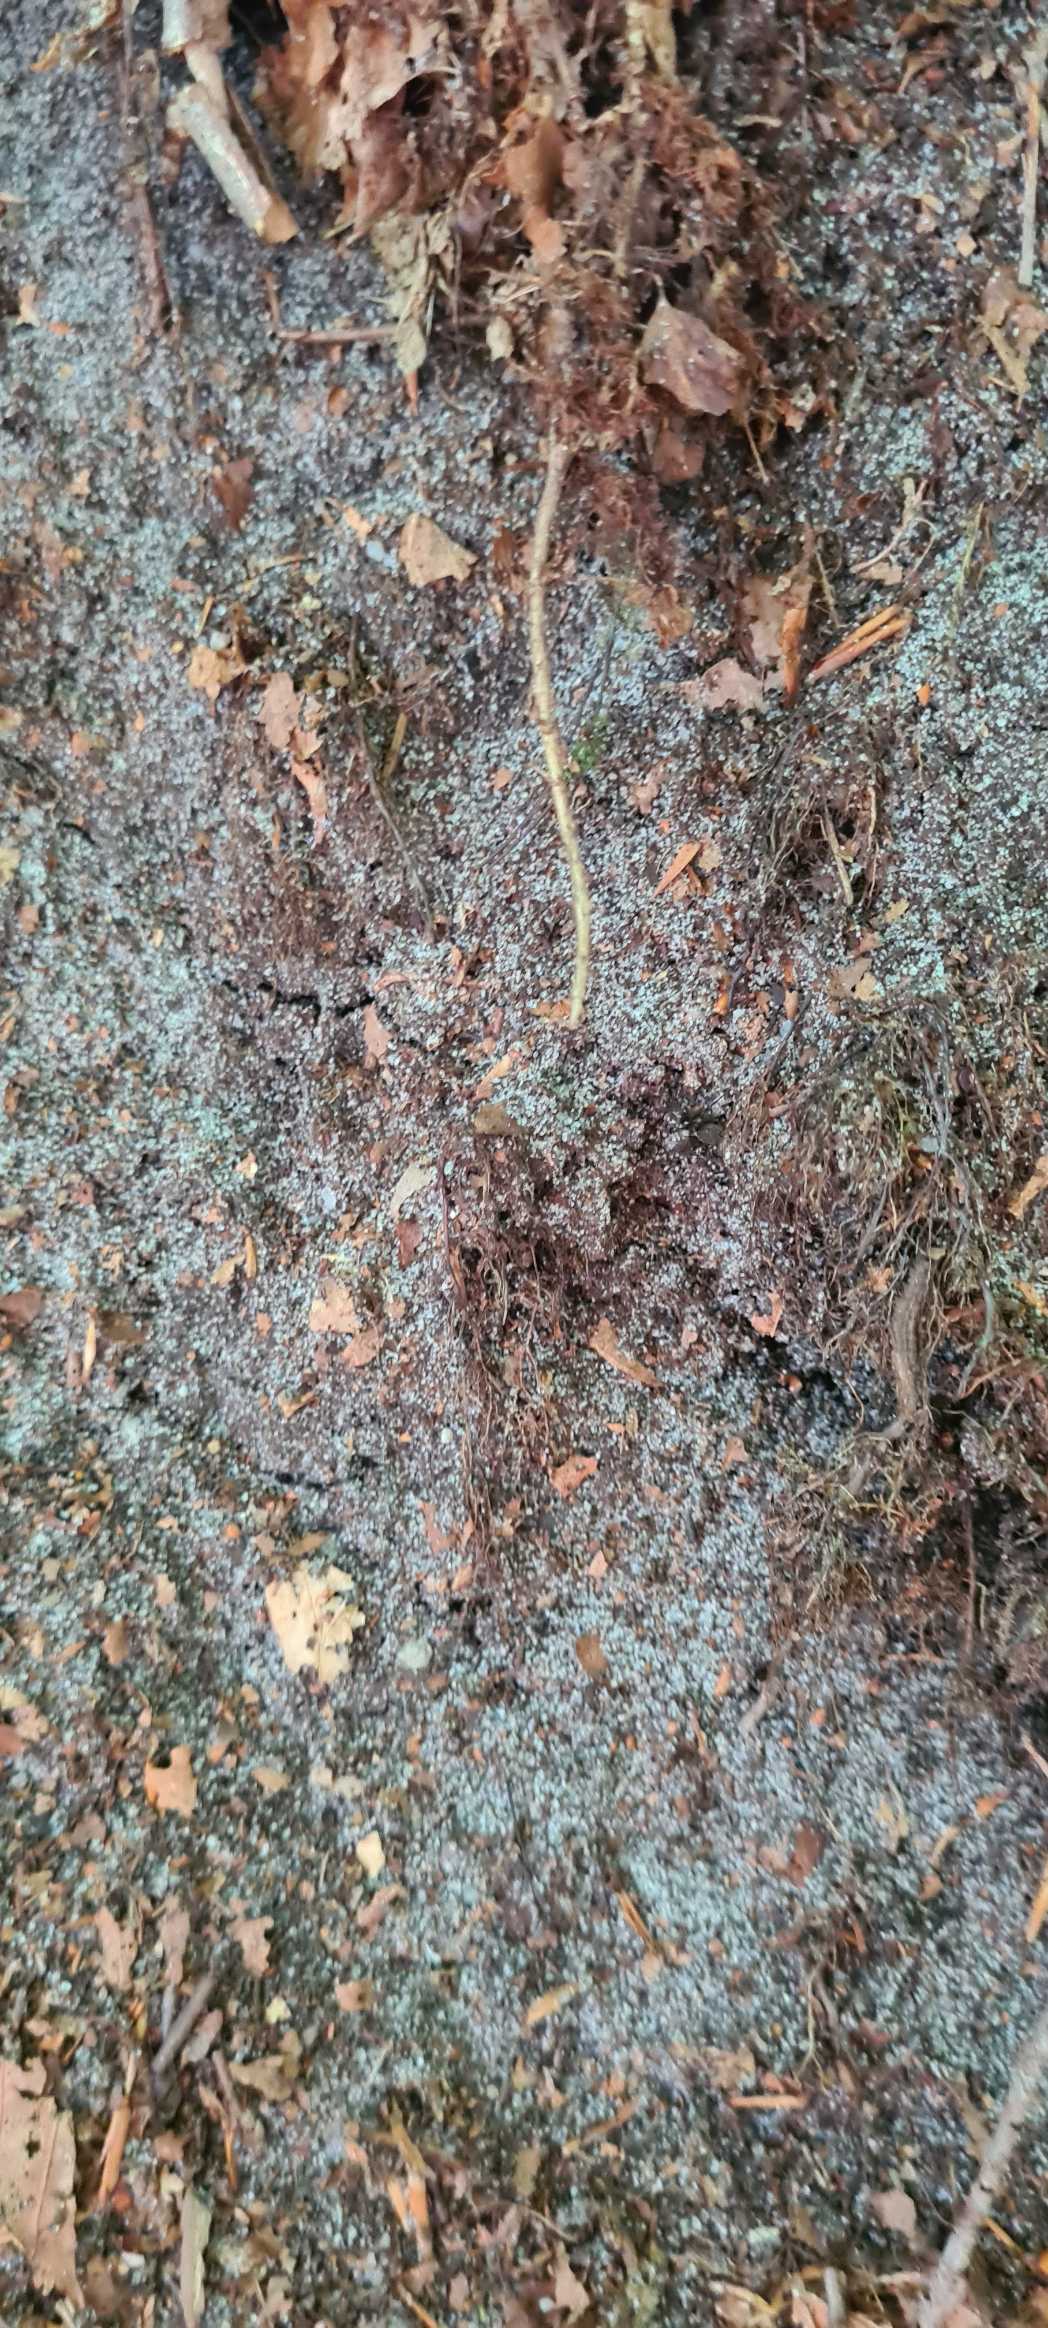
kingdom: Animalia
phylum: Arthropoda
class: Arachnida
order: Araneae
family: Lycosidae
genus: Pardosa
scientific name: Pardosa
